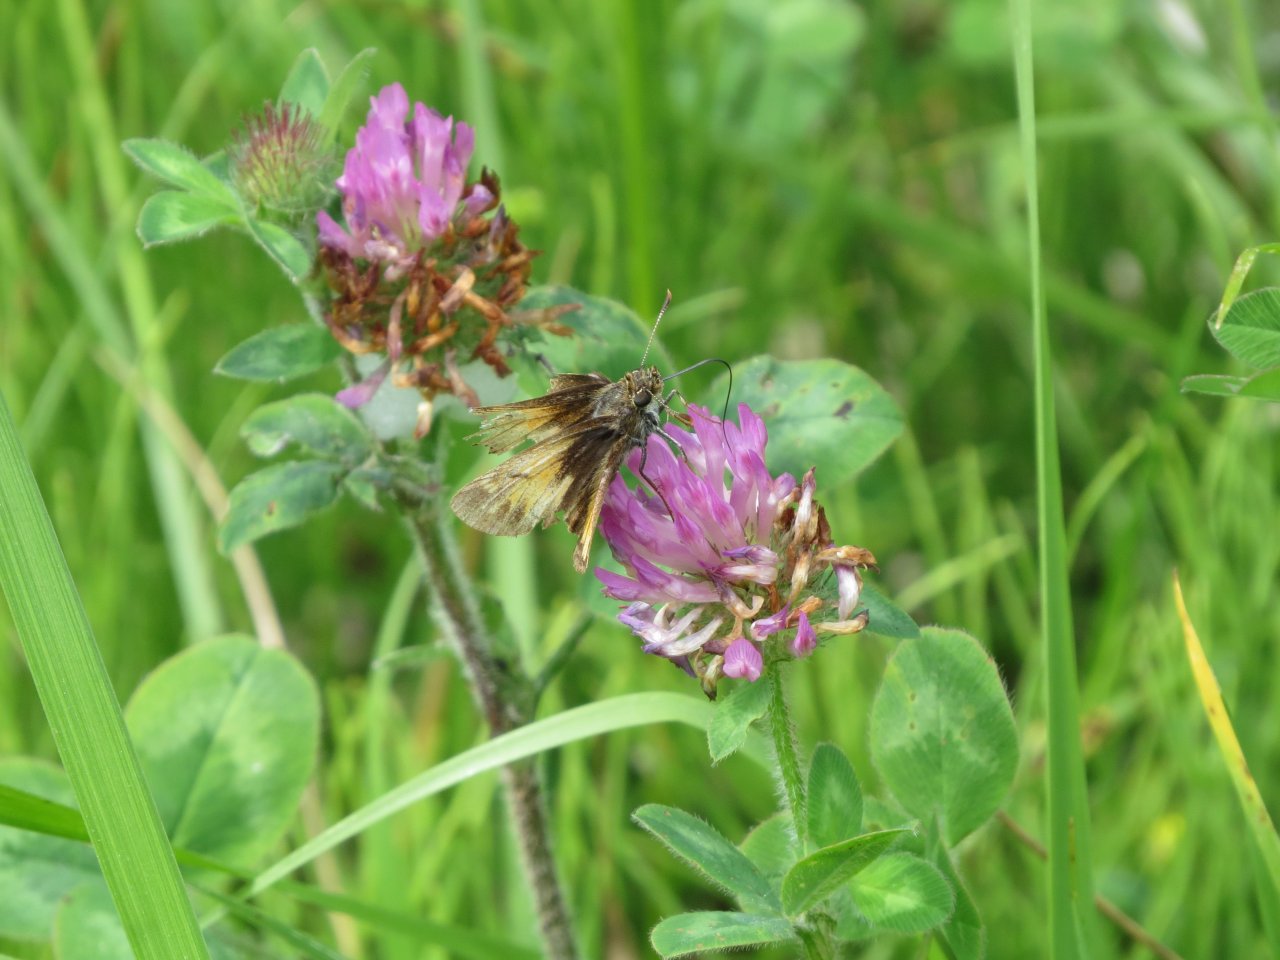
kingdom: Animalia
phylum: Arthropoda
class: Insecta
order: Lepidoptera
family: Hesperiidae
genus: Lon
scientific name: Lon hobomok
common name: Hobomok Skipper
